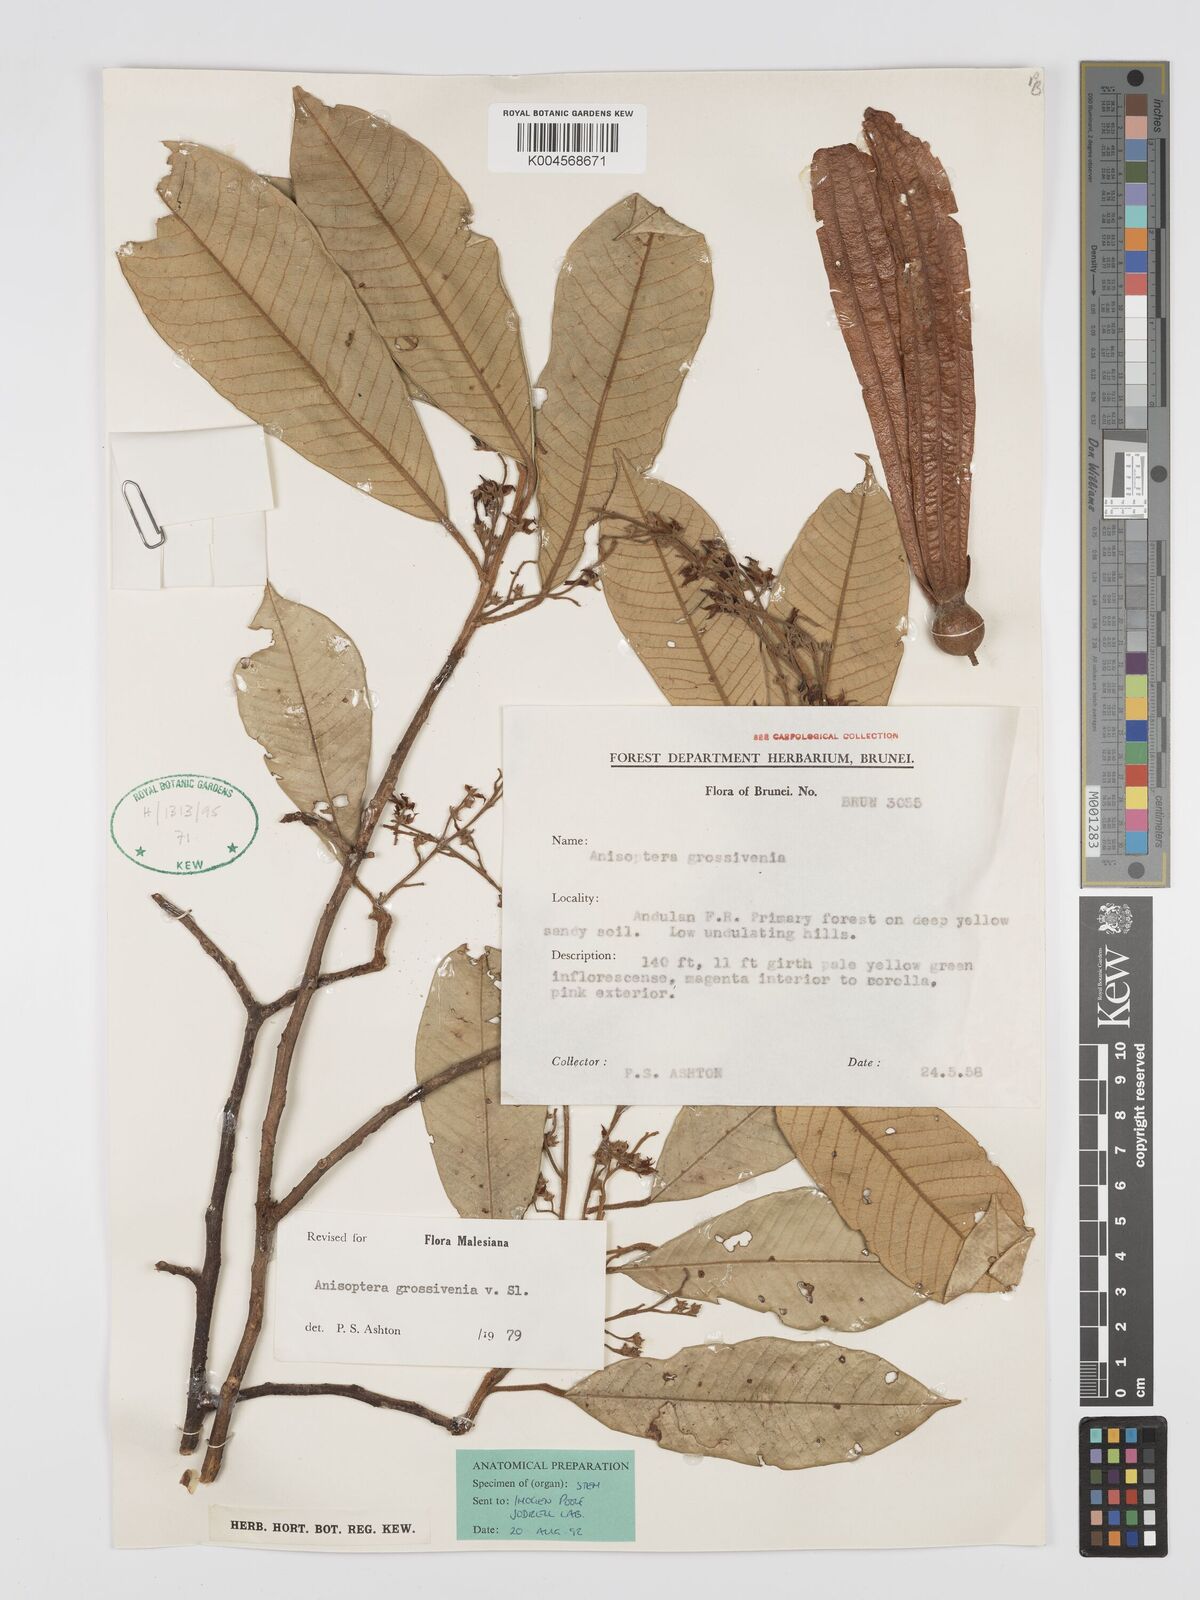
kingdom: Plantae
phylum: Tracheophyta
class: Magnoliopsida
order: Malvales
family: Dipterocarpaceae
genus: Anisoptera
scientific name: Anisoptera grossivenia
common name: Krabak
